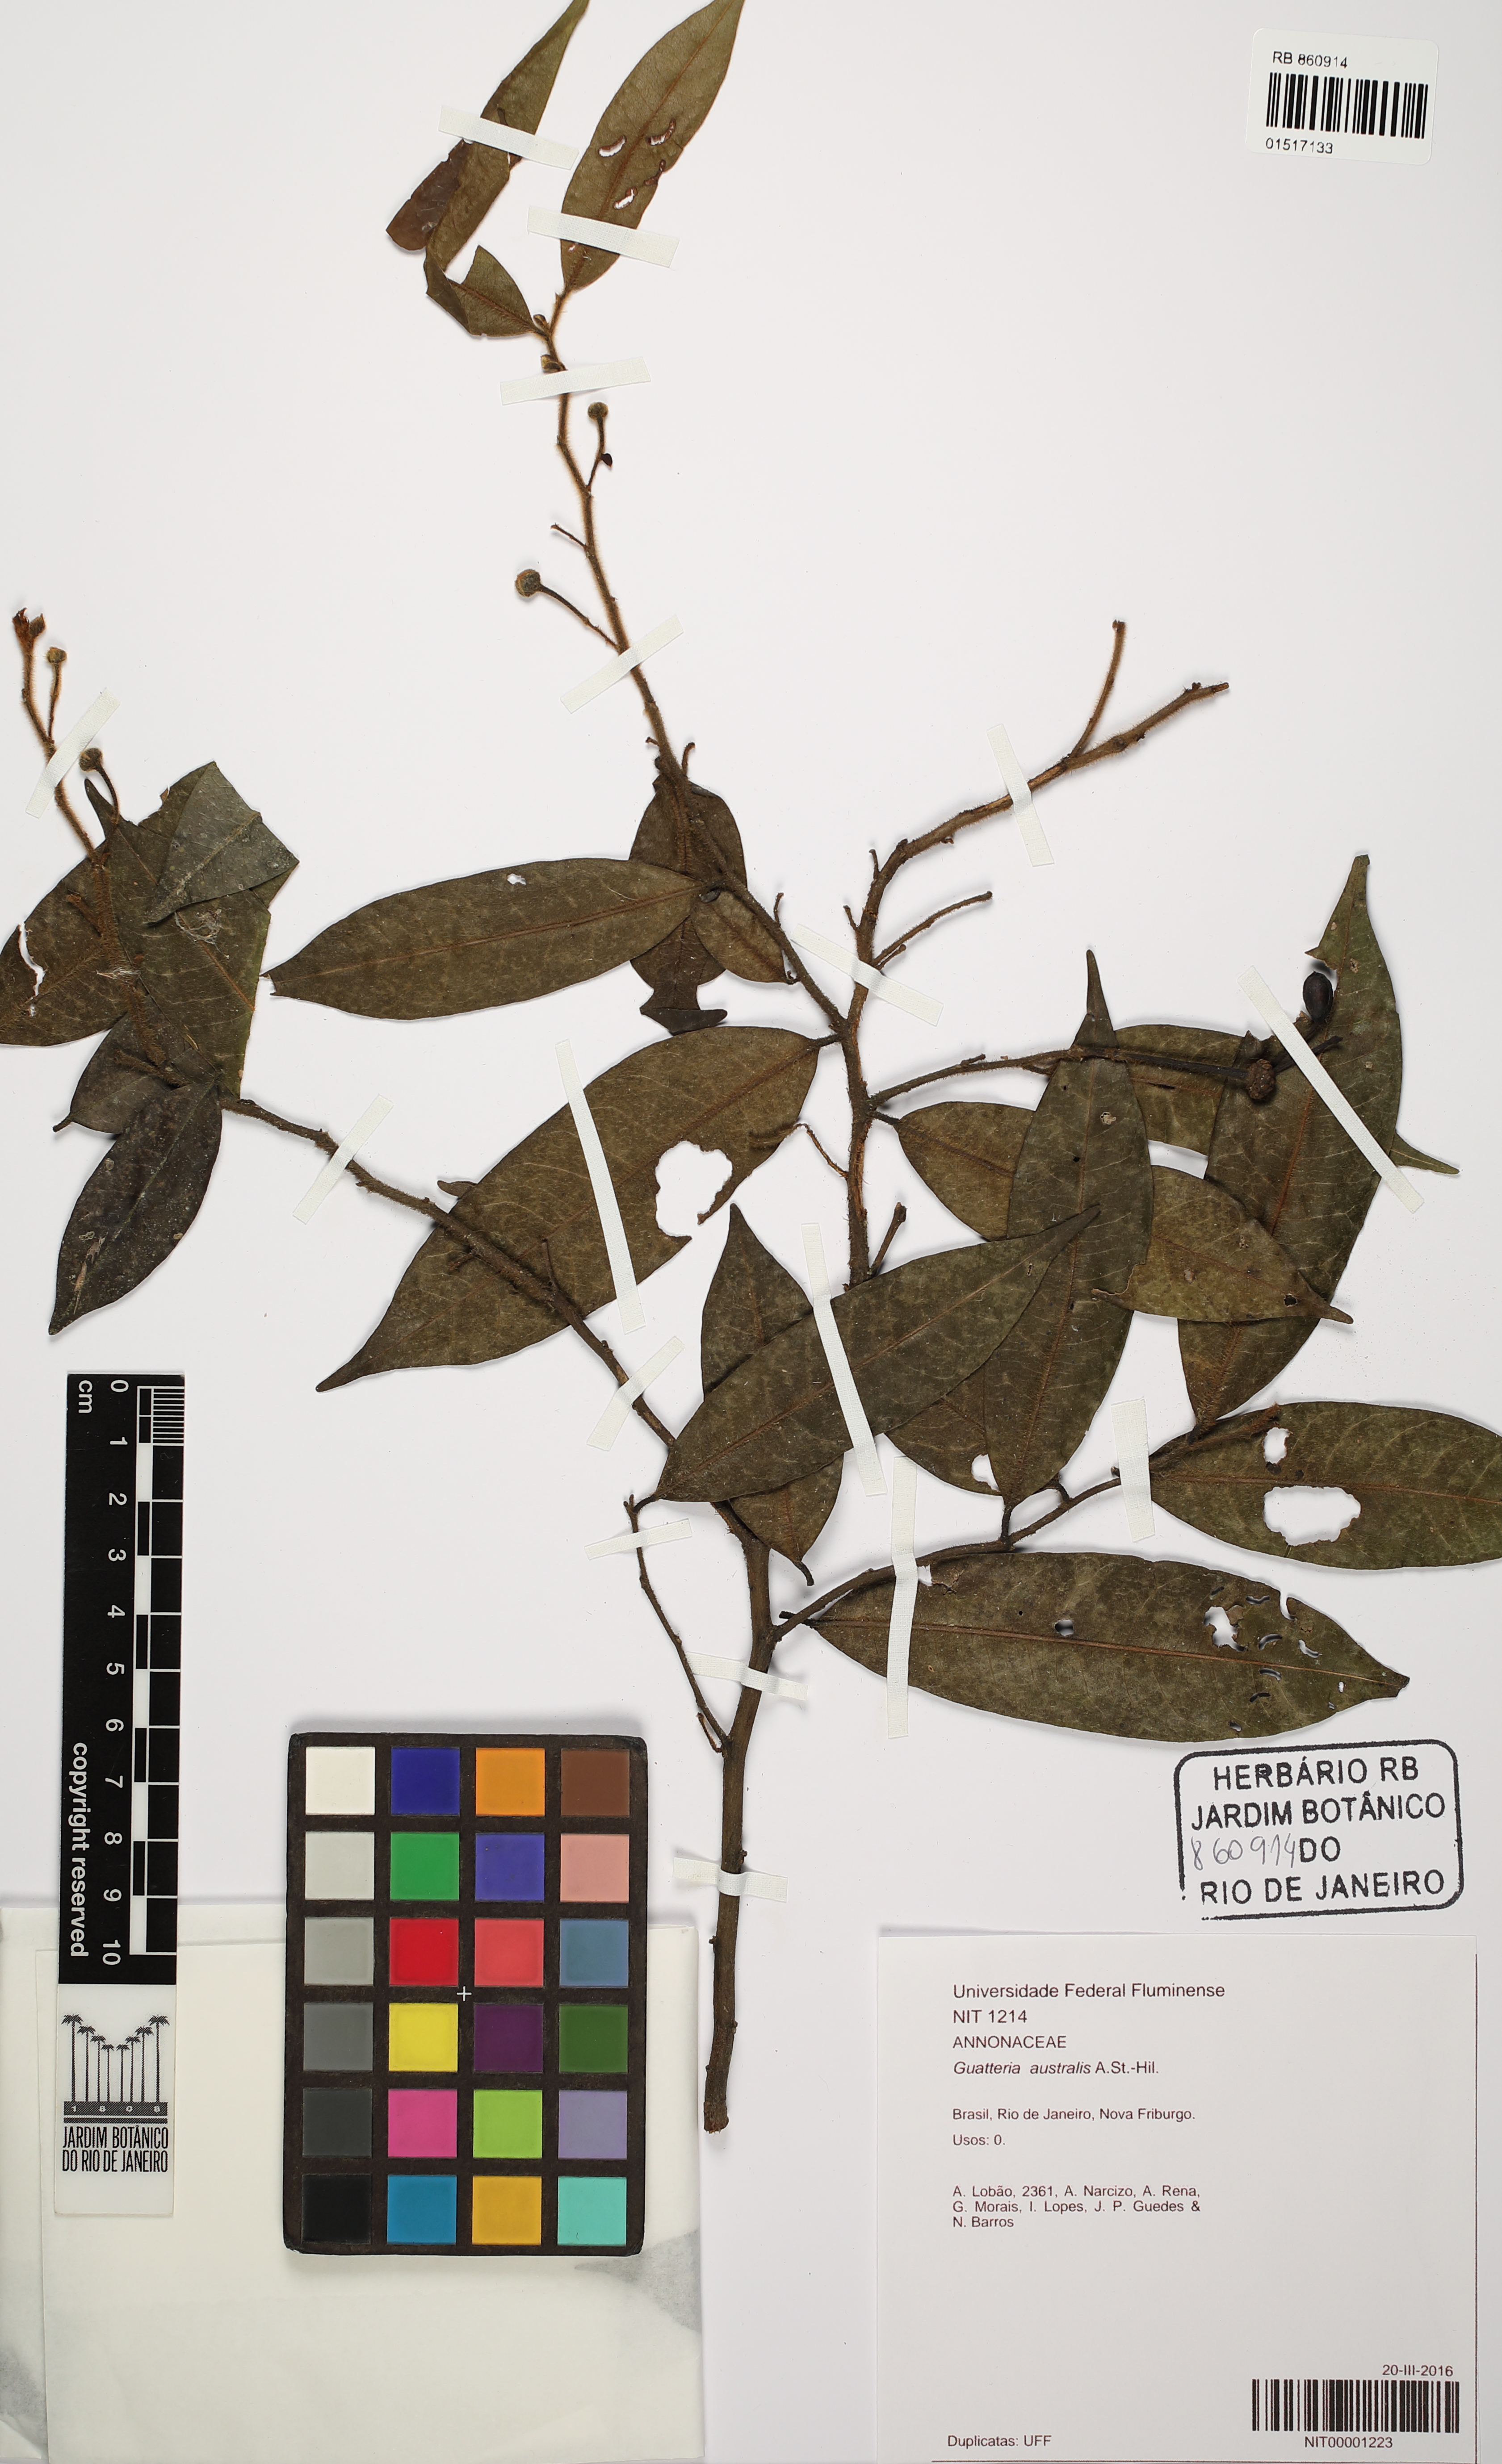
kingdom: Plantae
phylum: Tracheophyta
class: Magnoliopsida
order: Magnoliales
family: Annonaceae
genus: Guatteria
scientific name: Guatteria australis
